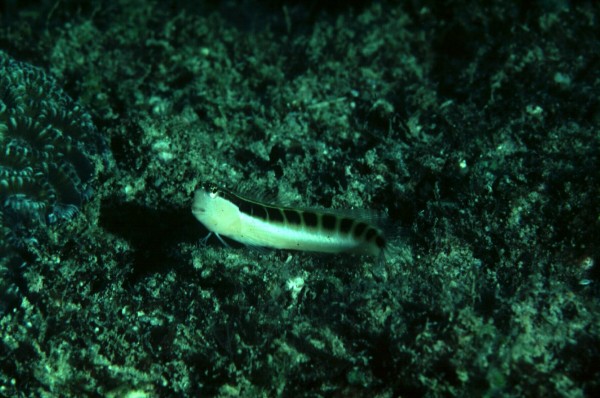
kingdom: Animalia
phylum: Chordata
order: Perciformes
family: Blenniidae
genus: Ecsenius
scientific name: Ecsenius lineatus
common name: Linear blenny
